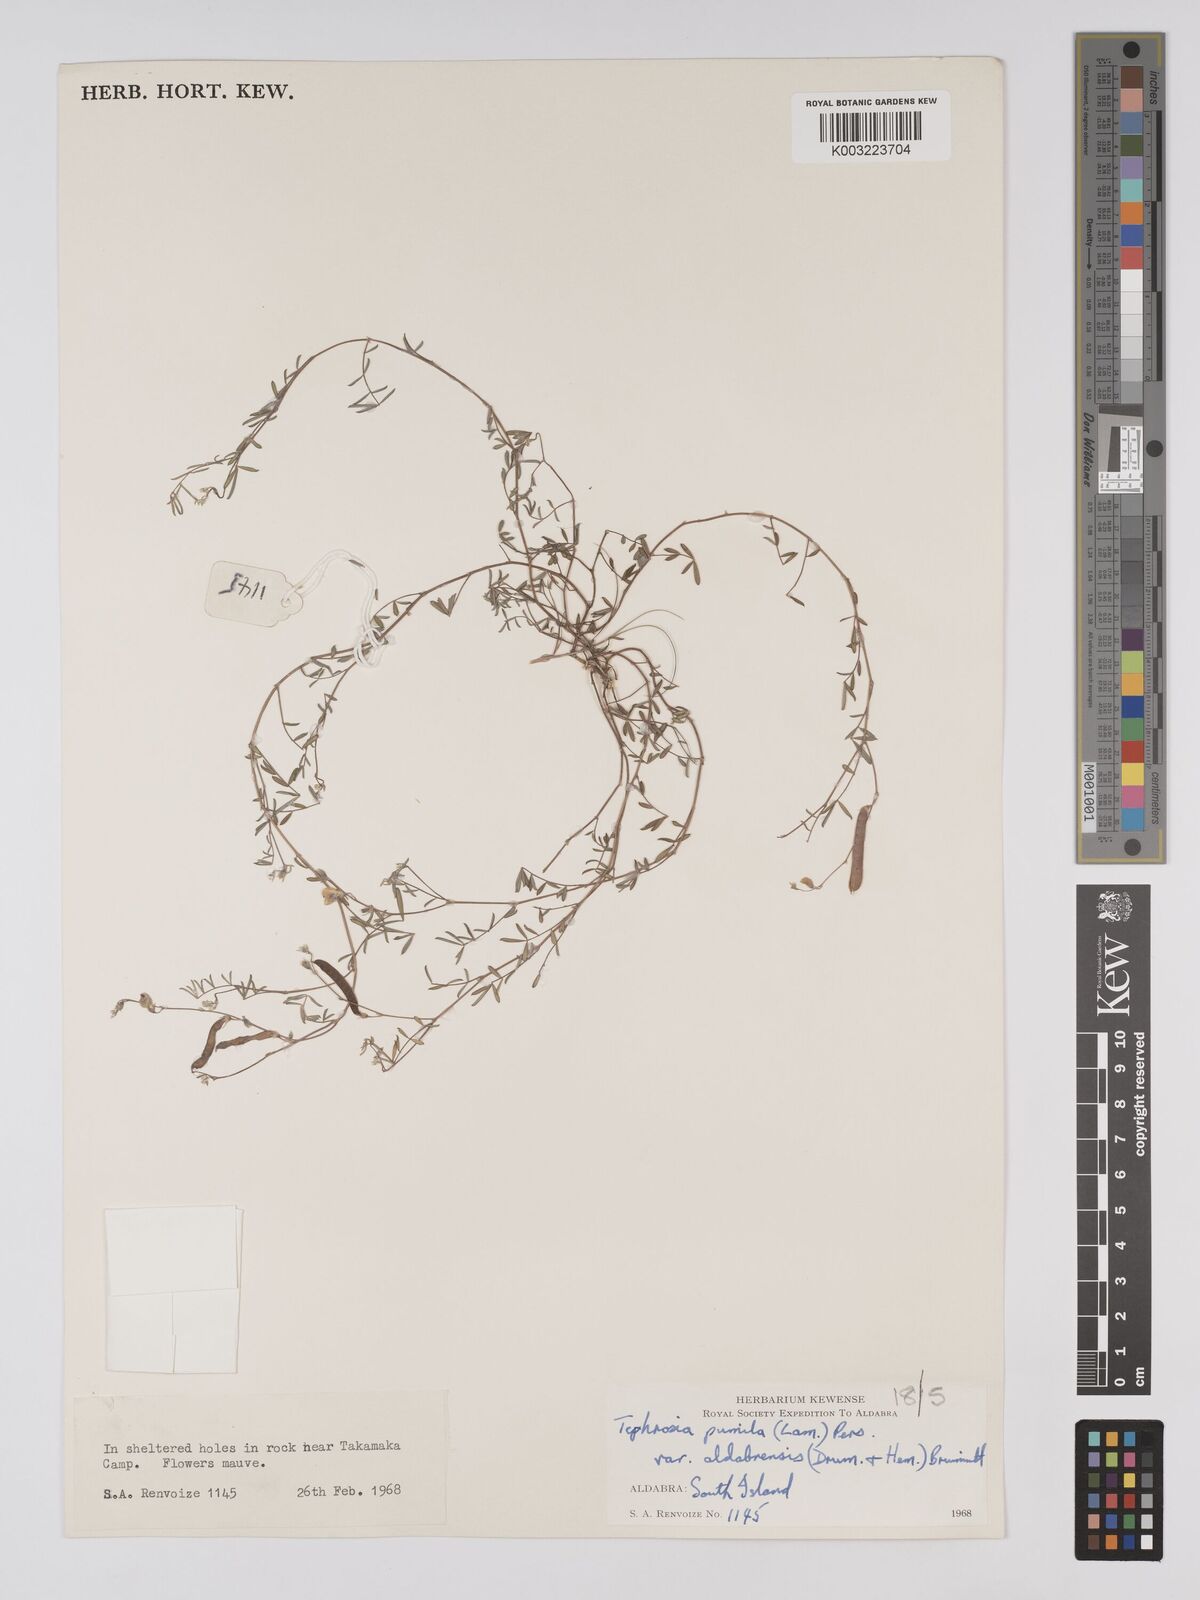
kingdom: Plantae
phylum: Tracheophyta
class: Magnoliopsida
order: Fabales
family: Fabaceae
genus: Tephrosia
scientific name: Tephrosia pumila
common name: Indigo sauvage
